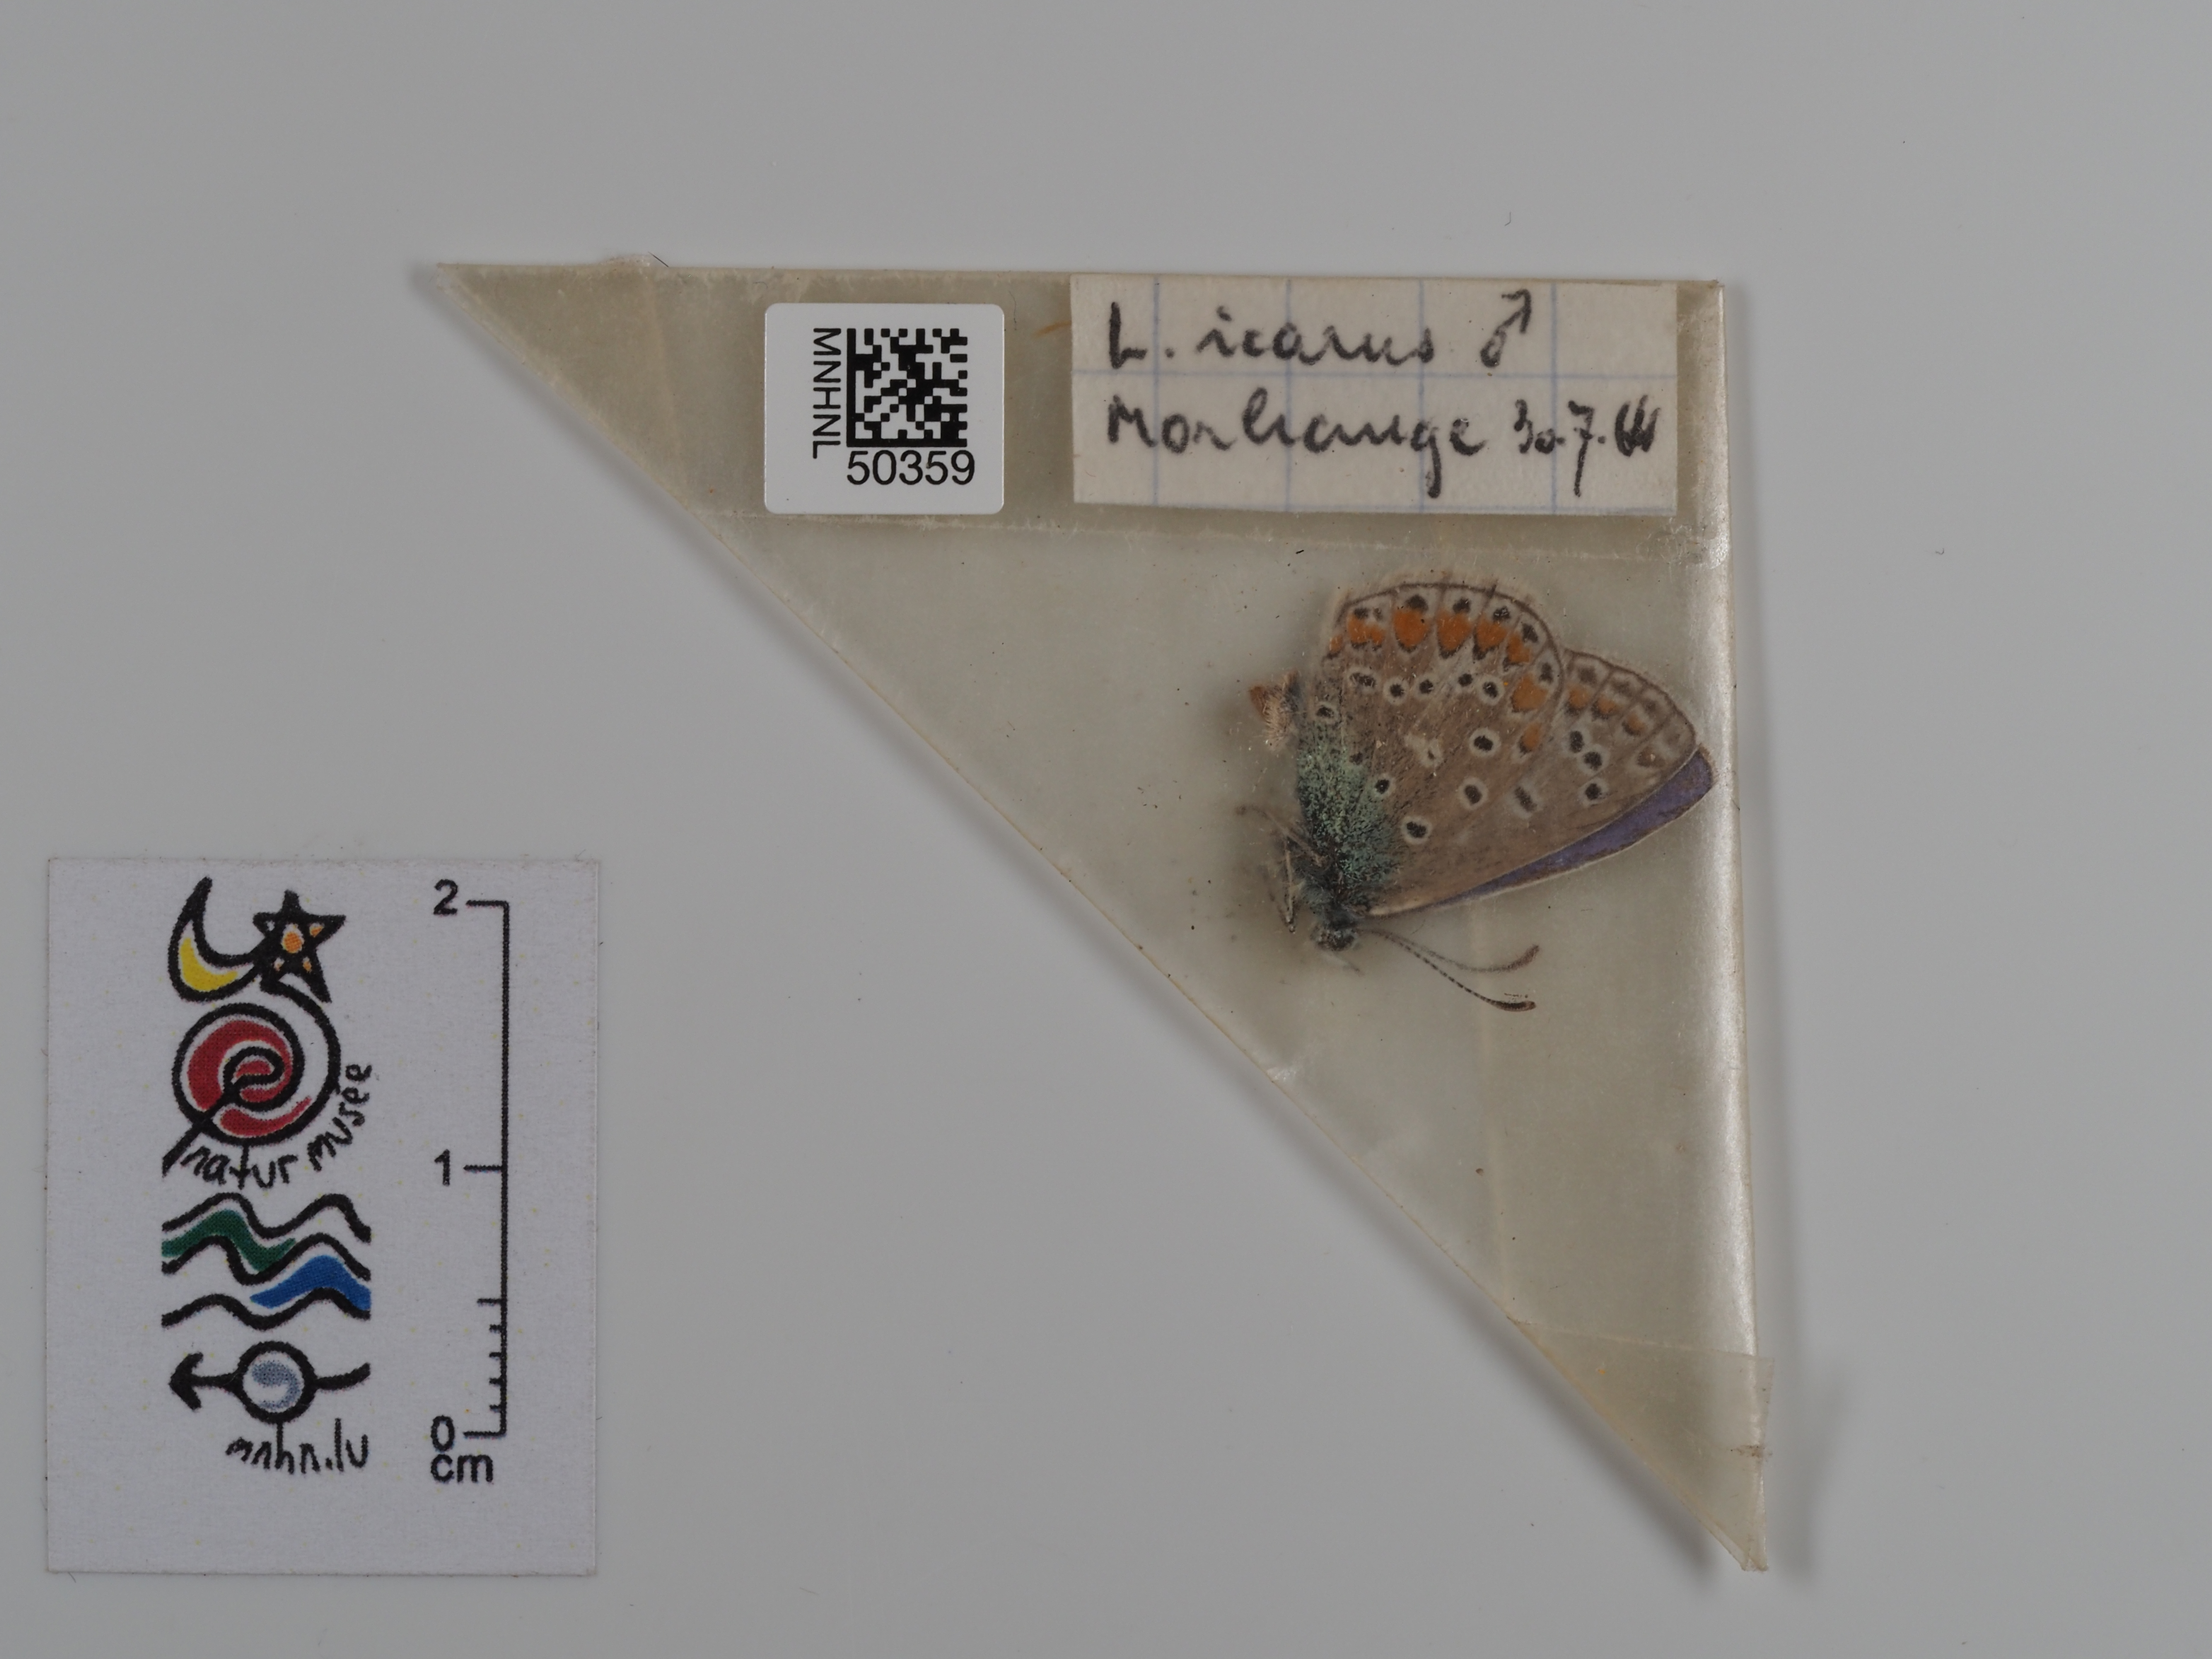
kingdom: Animalia
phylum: Arthropoda
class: Insecta
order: Lepidoptera
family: Lycaenidae
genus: Polyommatus
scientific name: Polyommatus icarus
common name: Common blue
